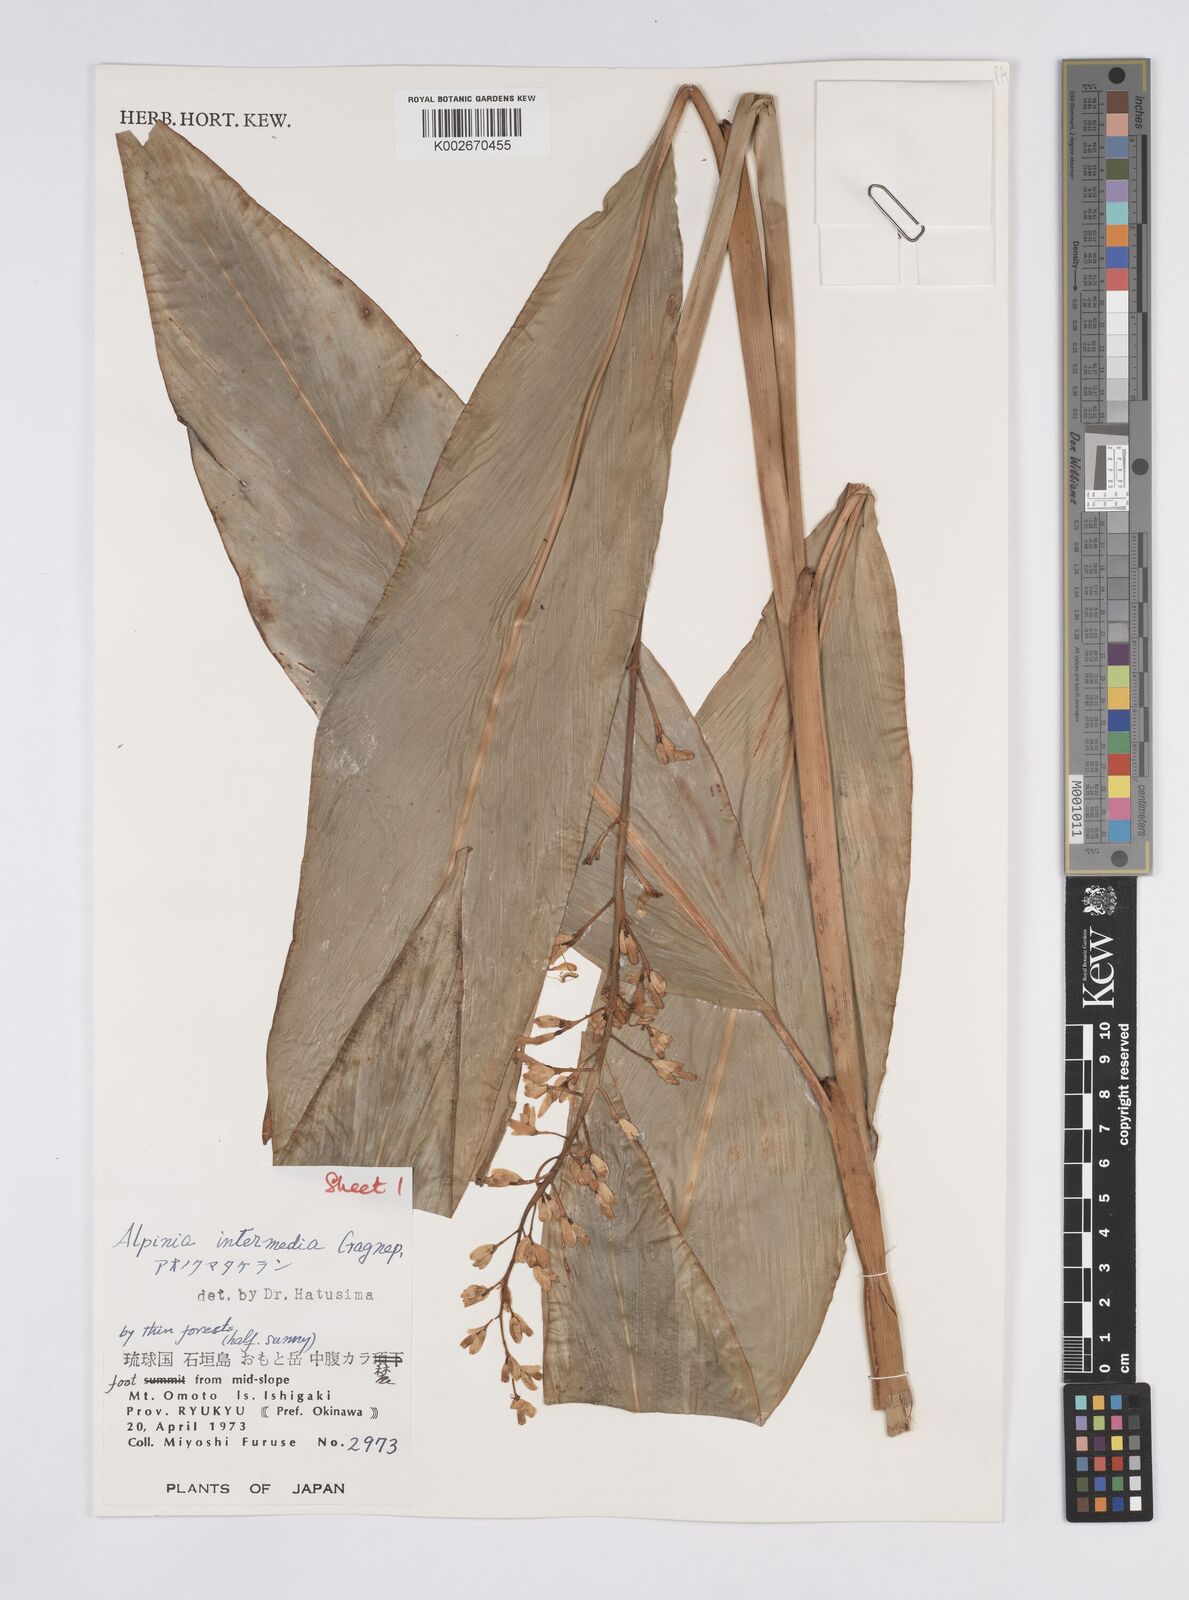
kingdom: Plantae
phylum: Tracheophyta
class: Liliopsida
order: Zingiberales
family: Zingiberaceae
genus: Alpinia
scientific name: Alpinia intermedia
